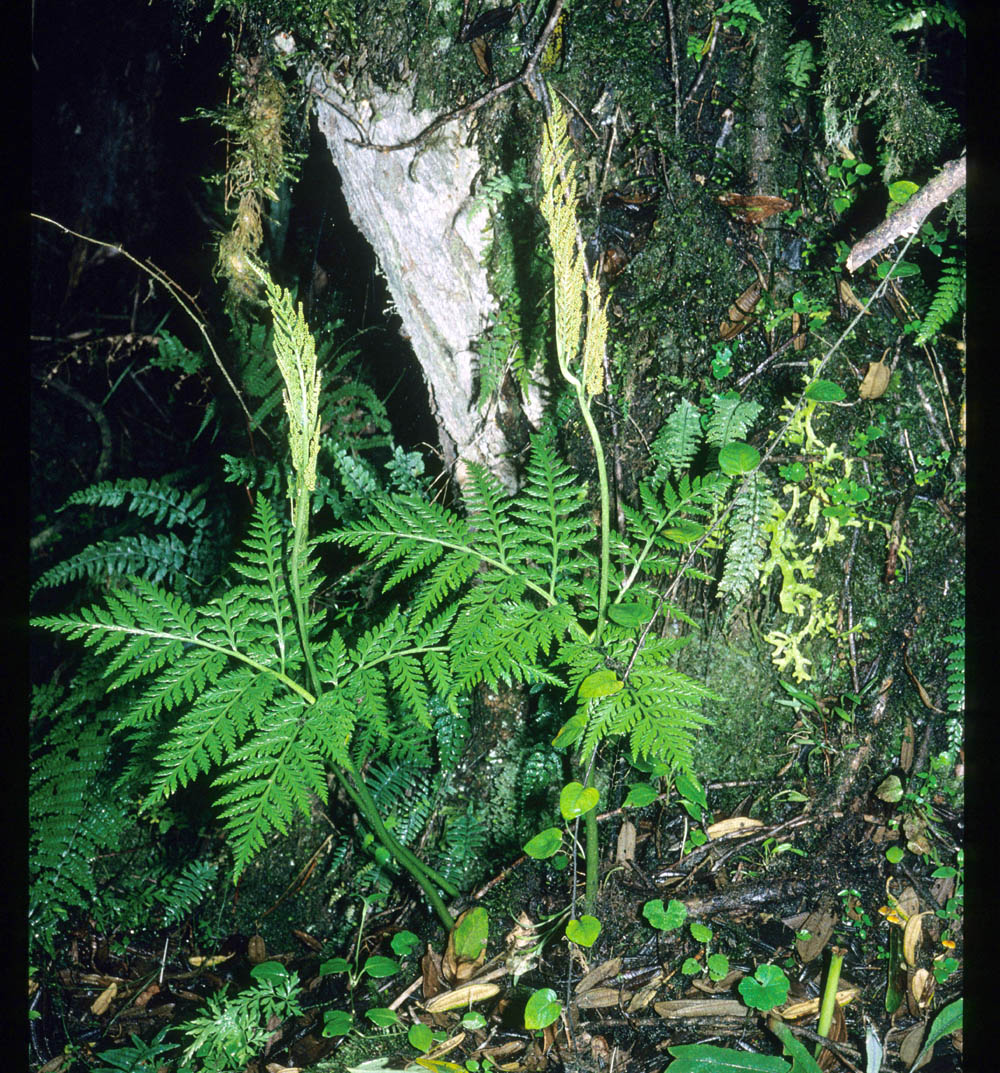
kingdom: Plantae
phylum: Tracheophyta
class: Polypodiopsida
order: Ophioglossales
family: Ophioglossaceae
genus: Botrypus
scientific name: Botrypus virginianus
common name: Common grapefern
